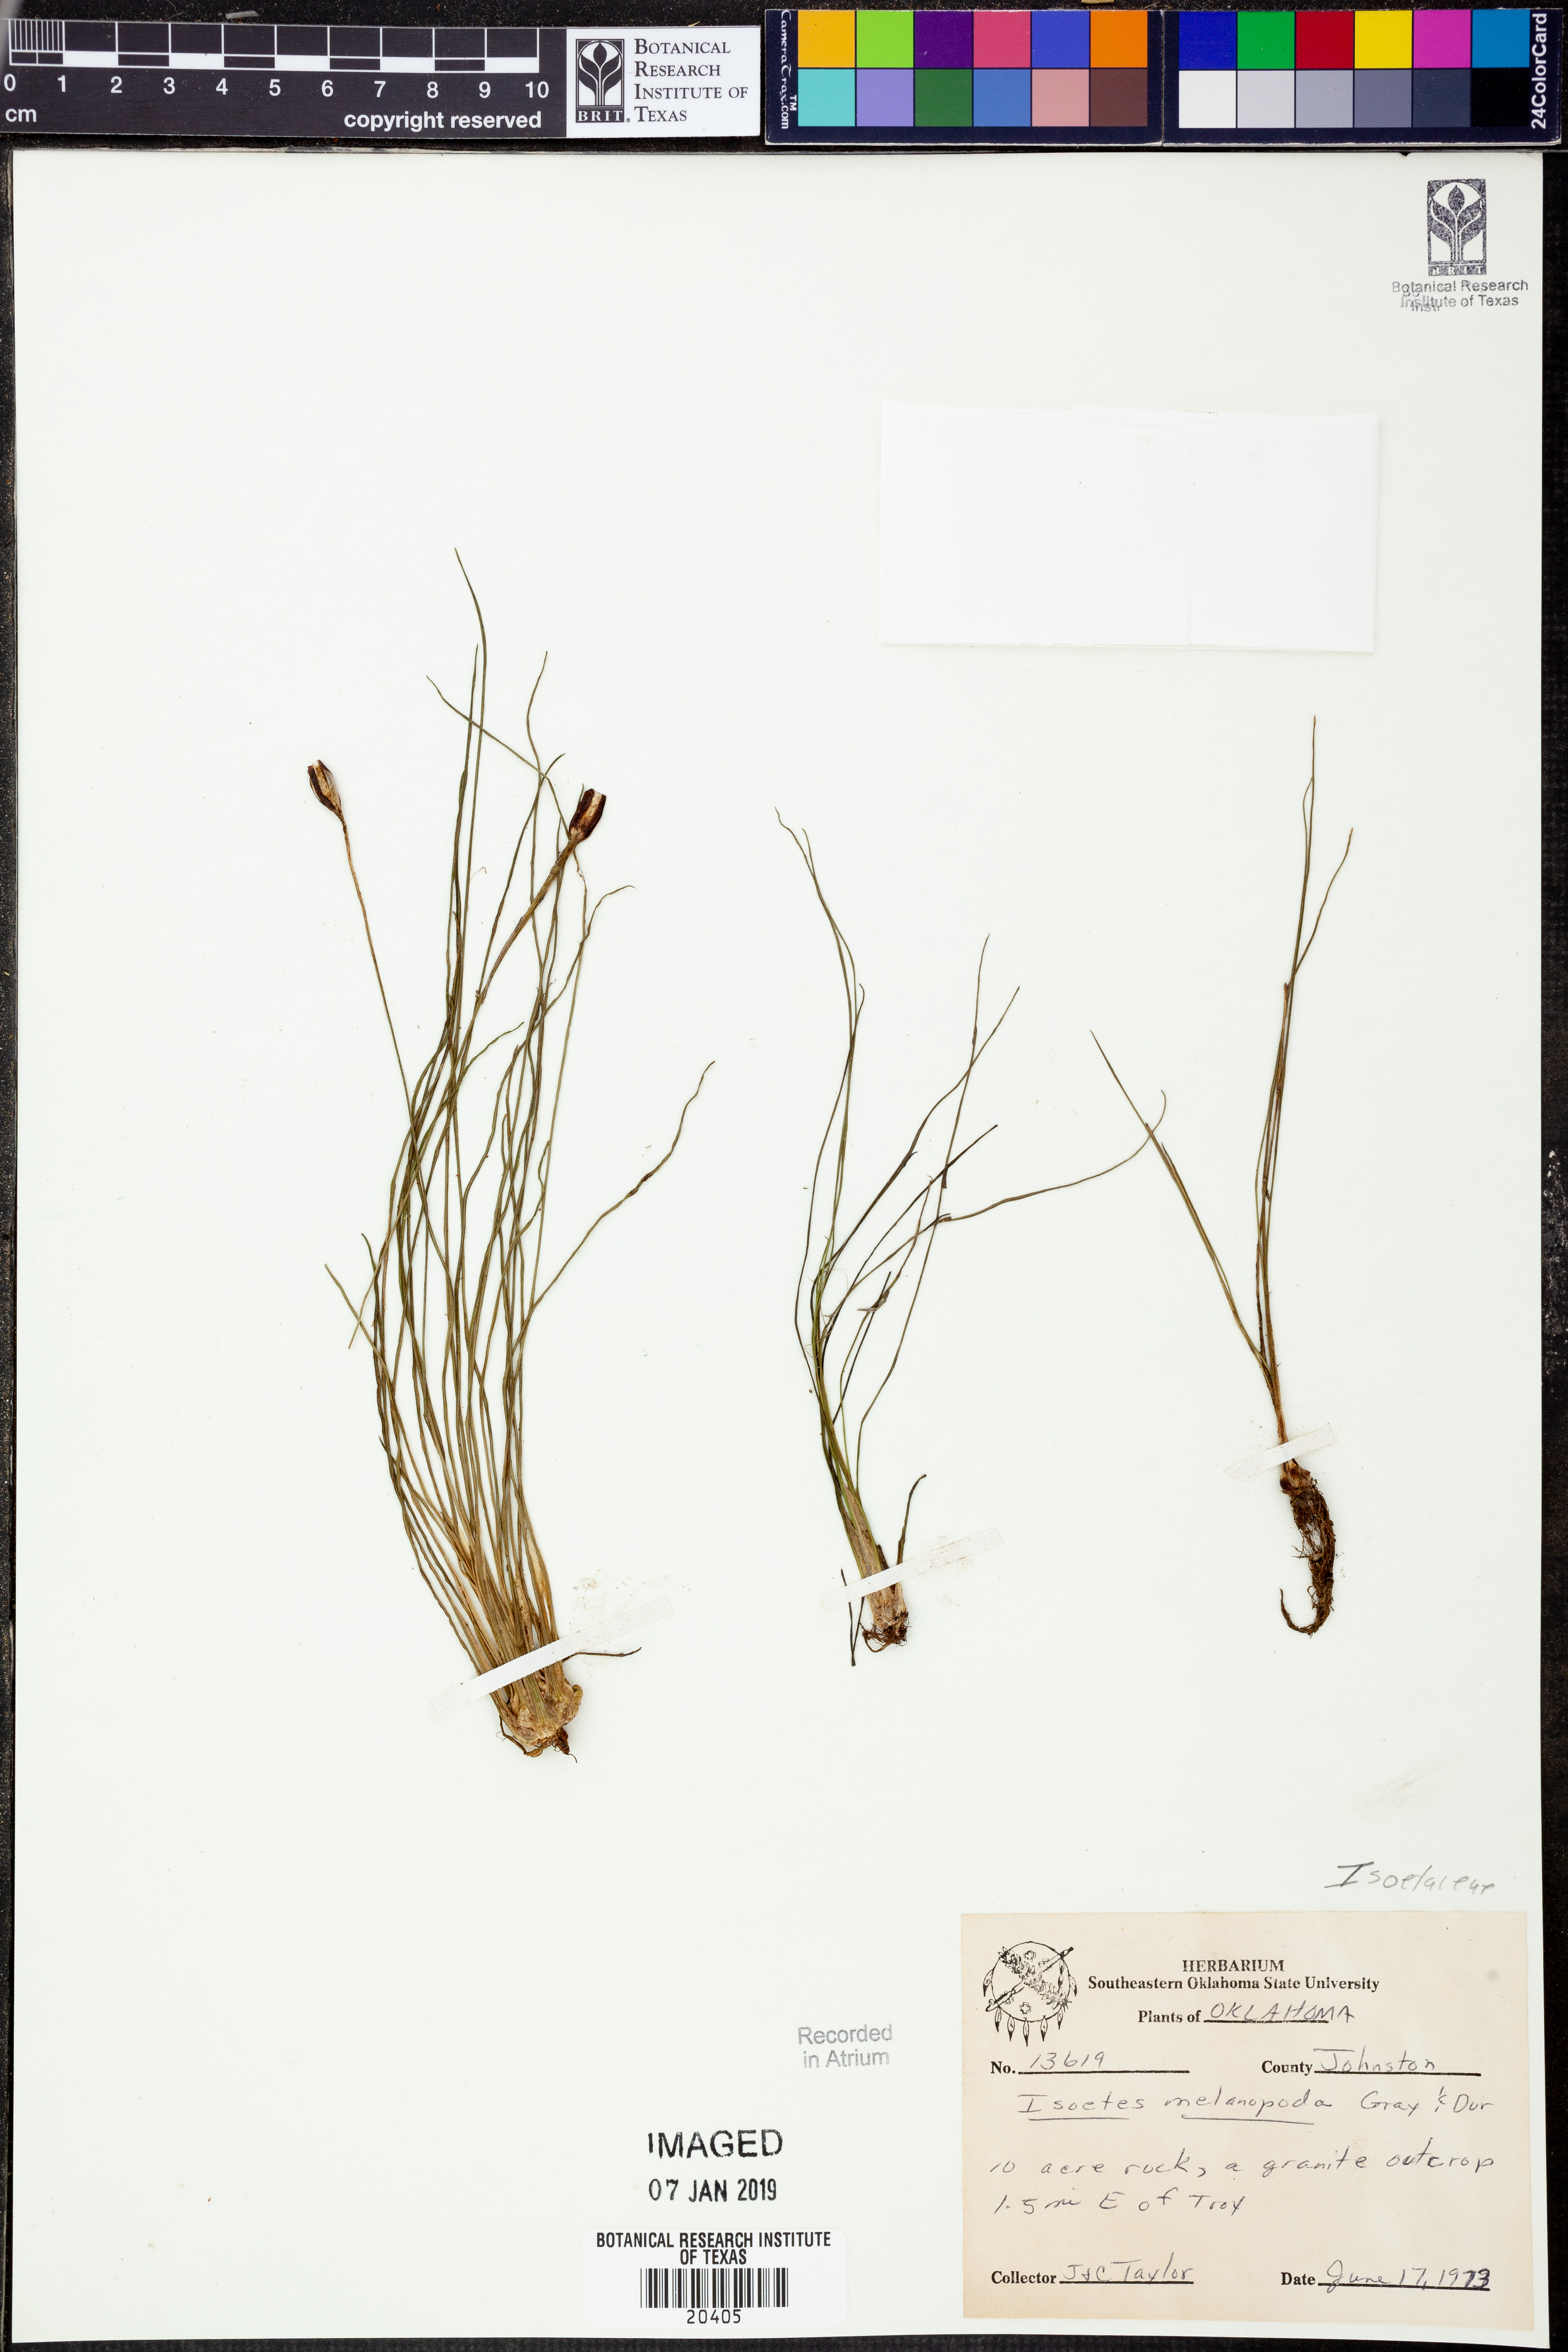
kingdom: Plantae
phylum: Tracheophyta
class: Lycopodiopsida
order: Isoetales
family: Isoetaceae
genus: Isoetes
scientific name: Isoetes melanopoda
